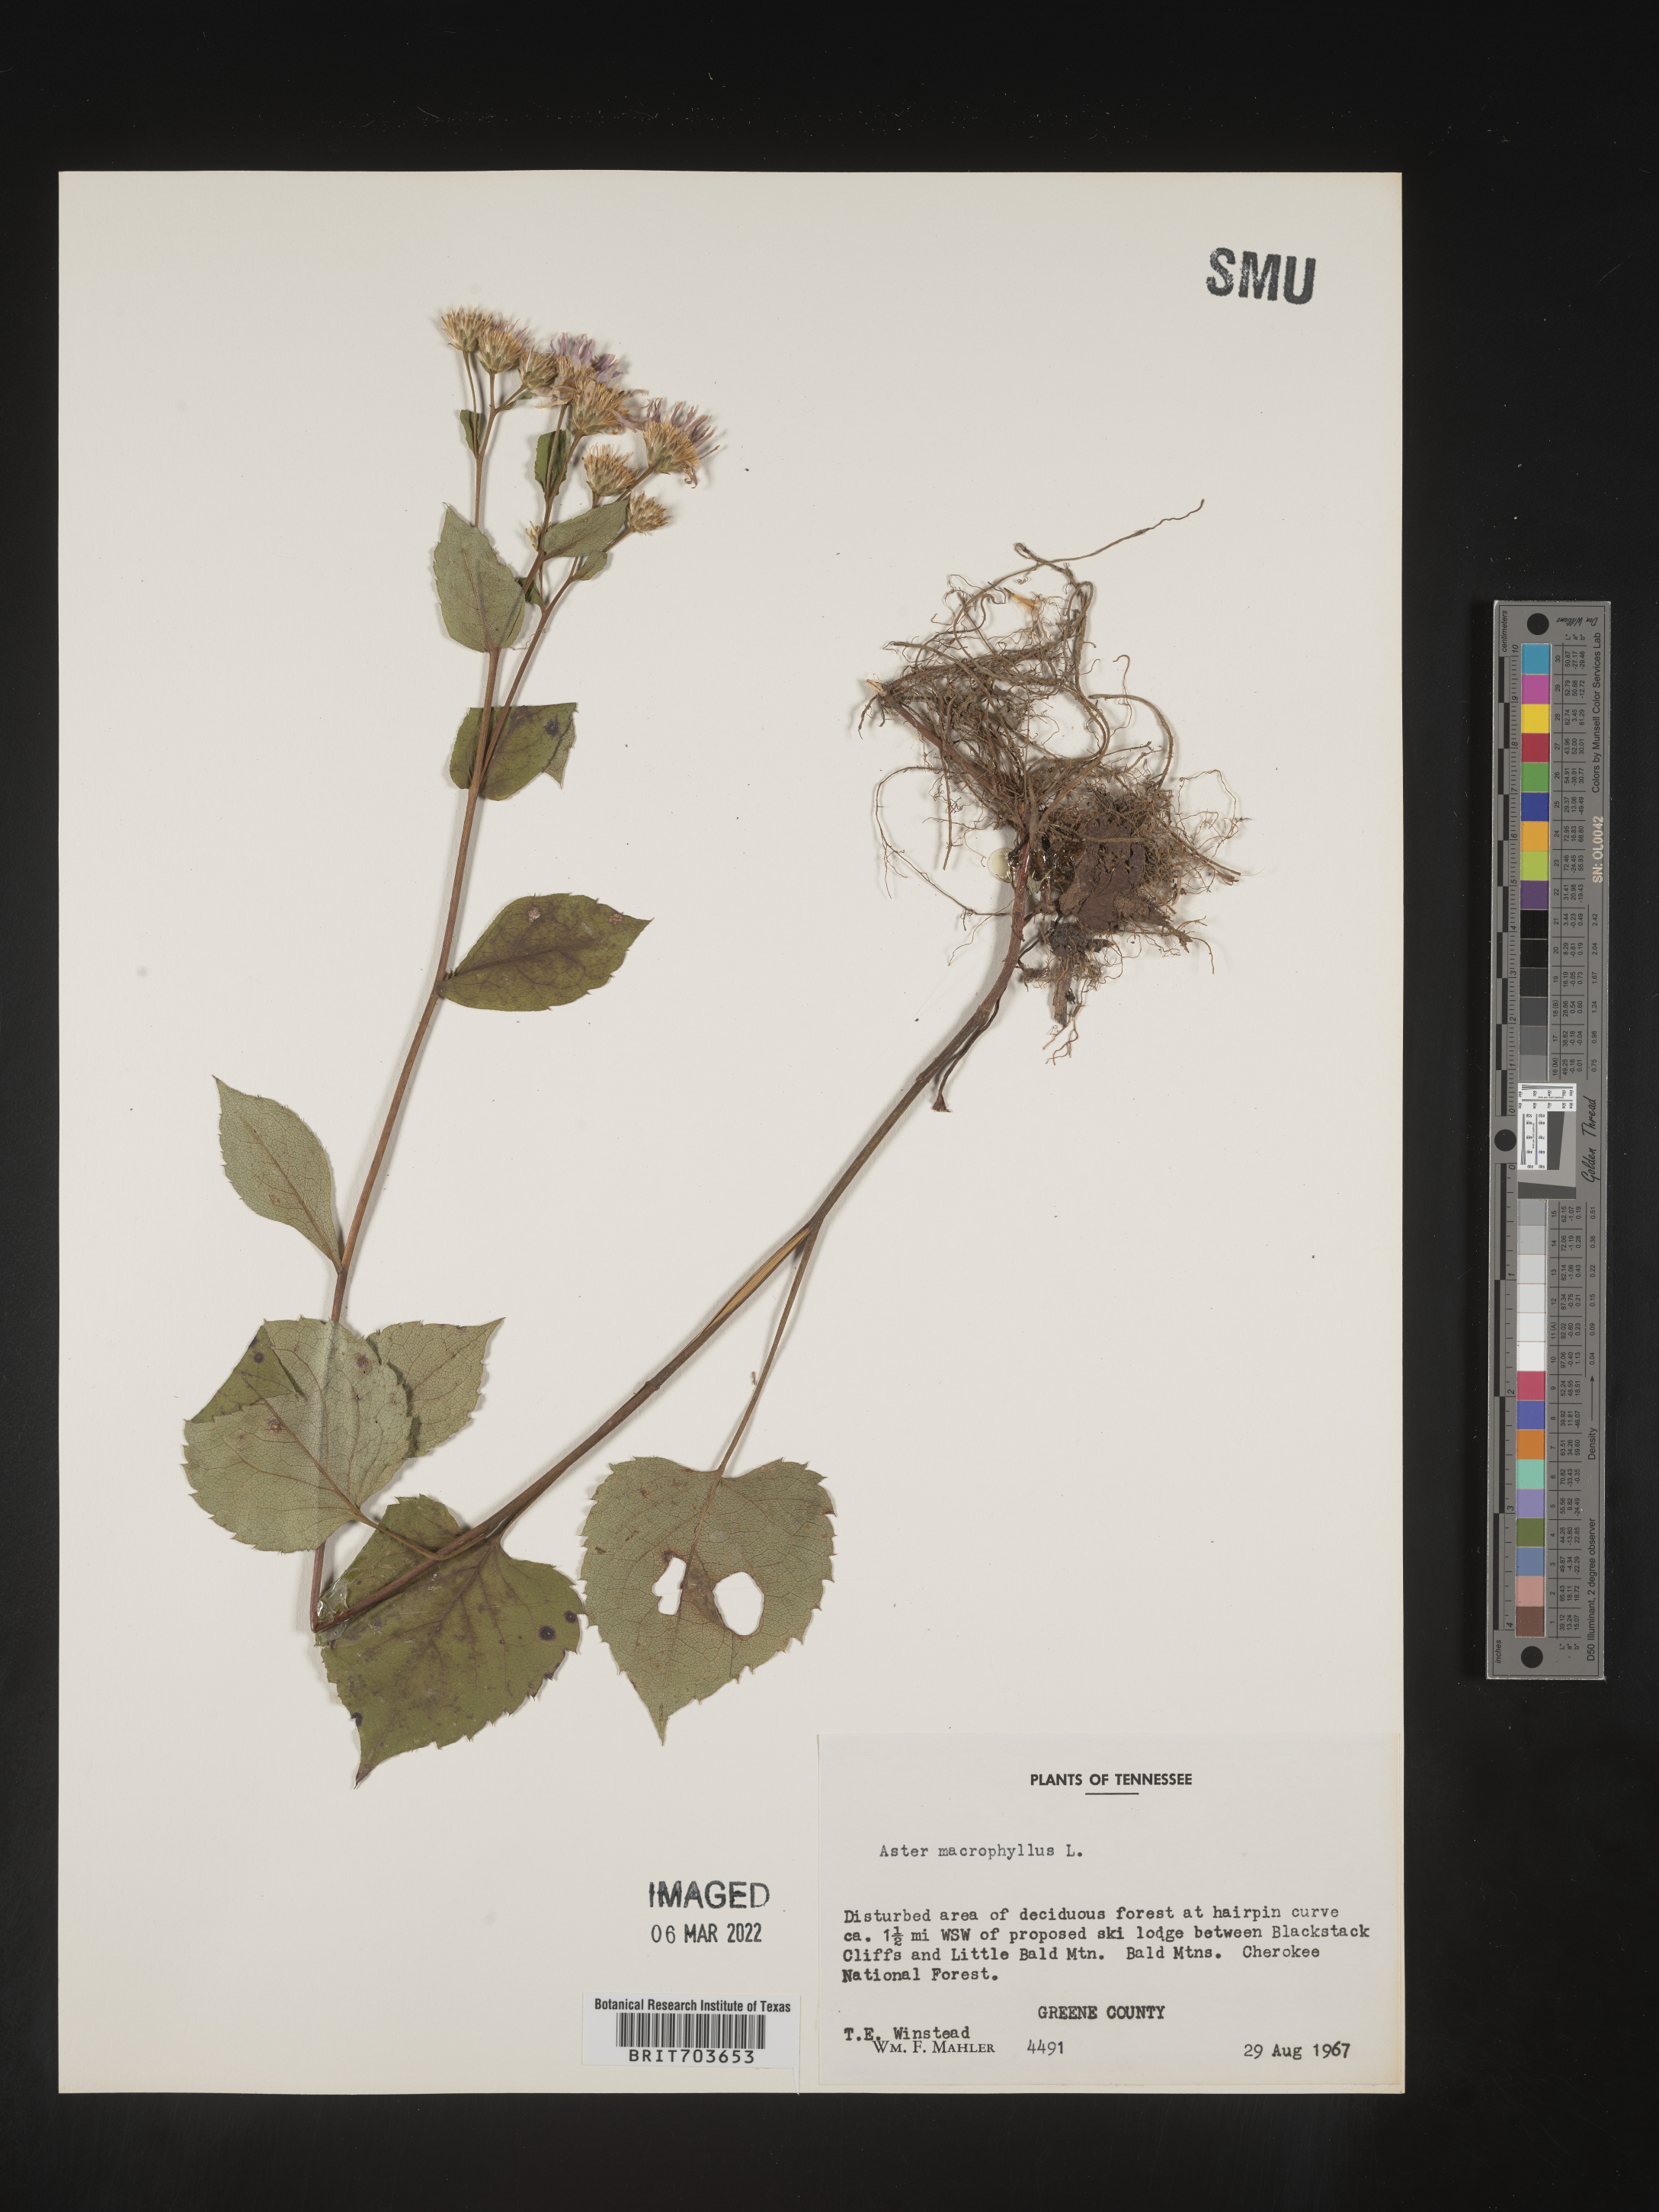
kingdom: Plantae
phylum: Tracheophyta
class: Magnoliopsida
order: Asterales
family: Asteraceae
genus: Eurybia
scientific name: Eurybia macrophylla
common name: Big-leaved aster
